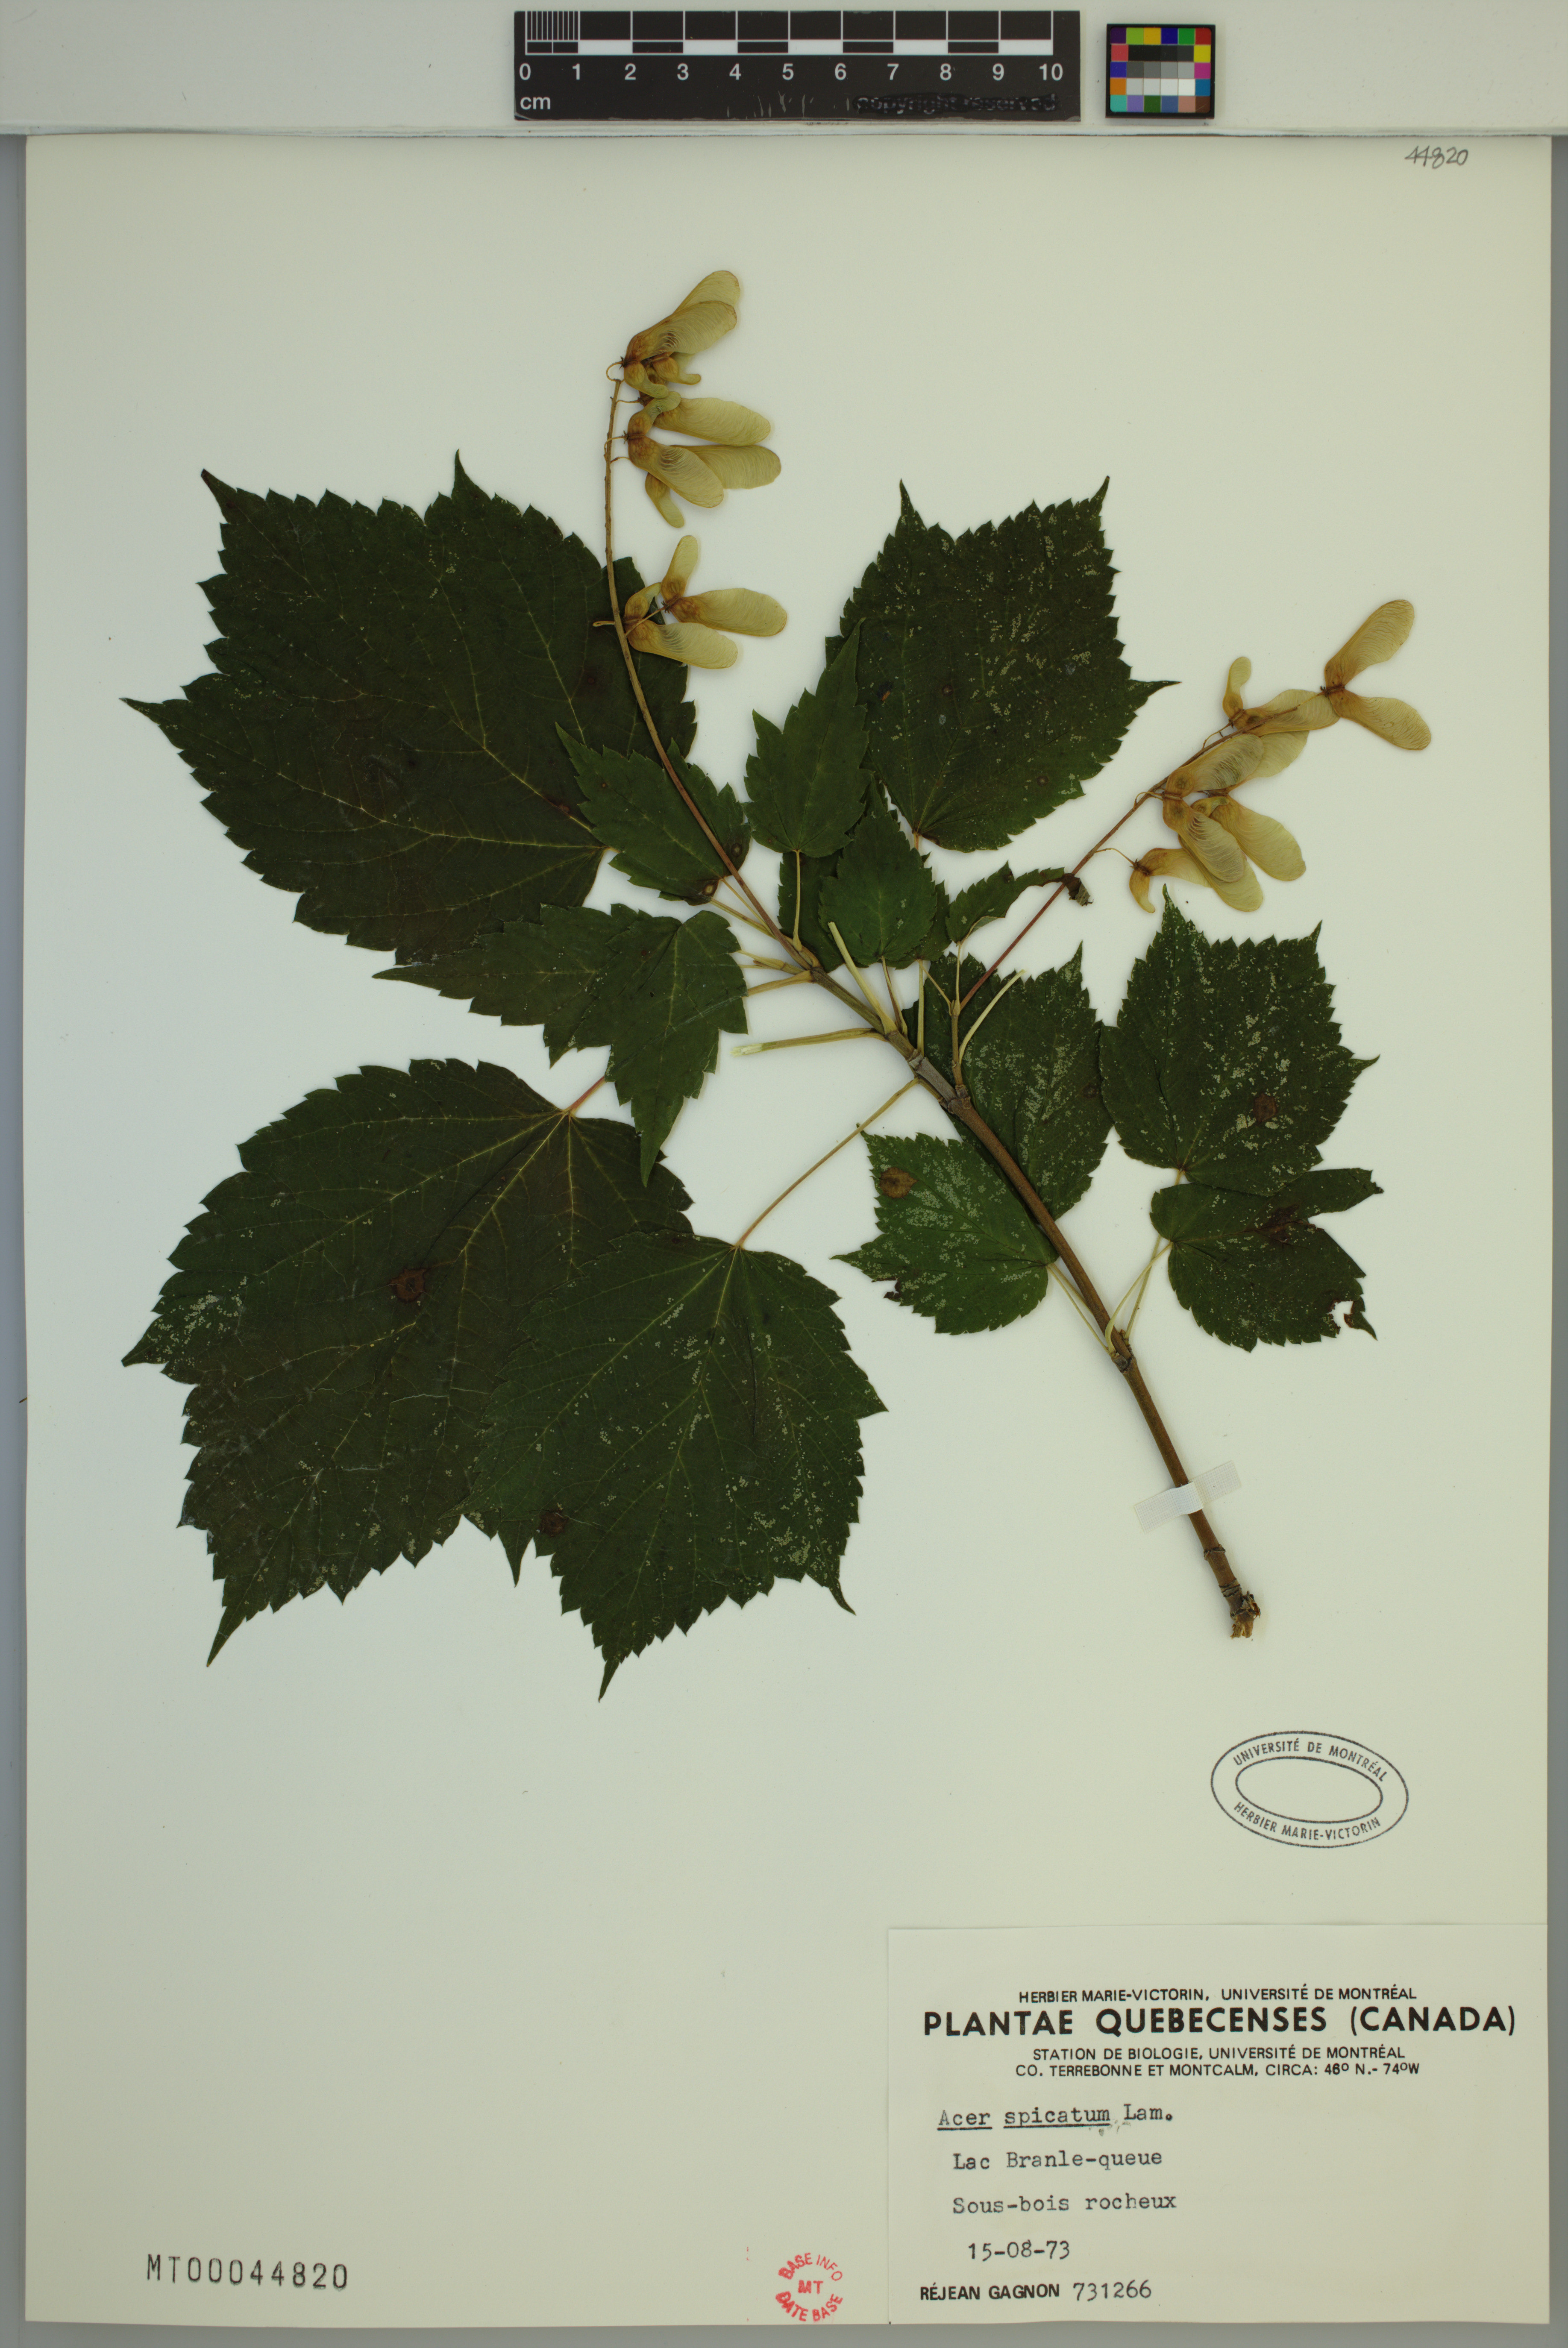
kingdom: Plantae
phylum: Tracheophyta
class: Magnoliopsida
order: Sapindales
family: Sapindaceae
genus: Acer
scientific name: Acer spicatum
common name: Mountain maple
